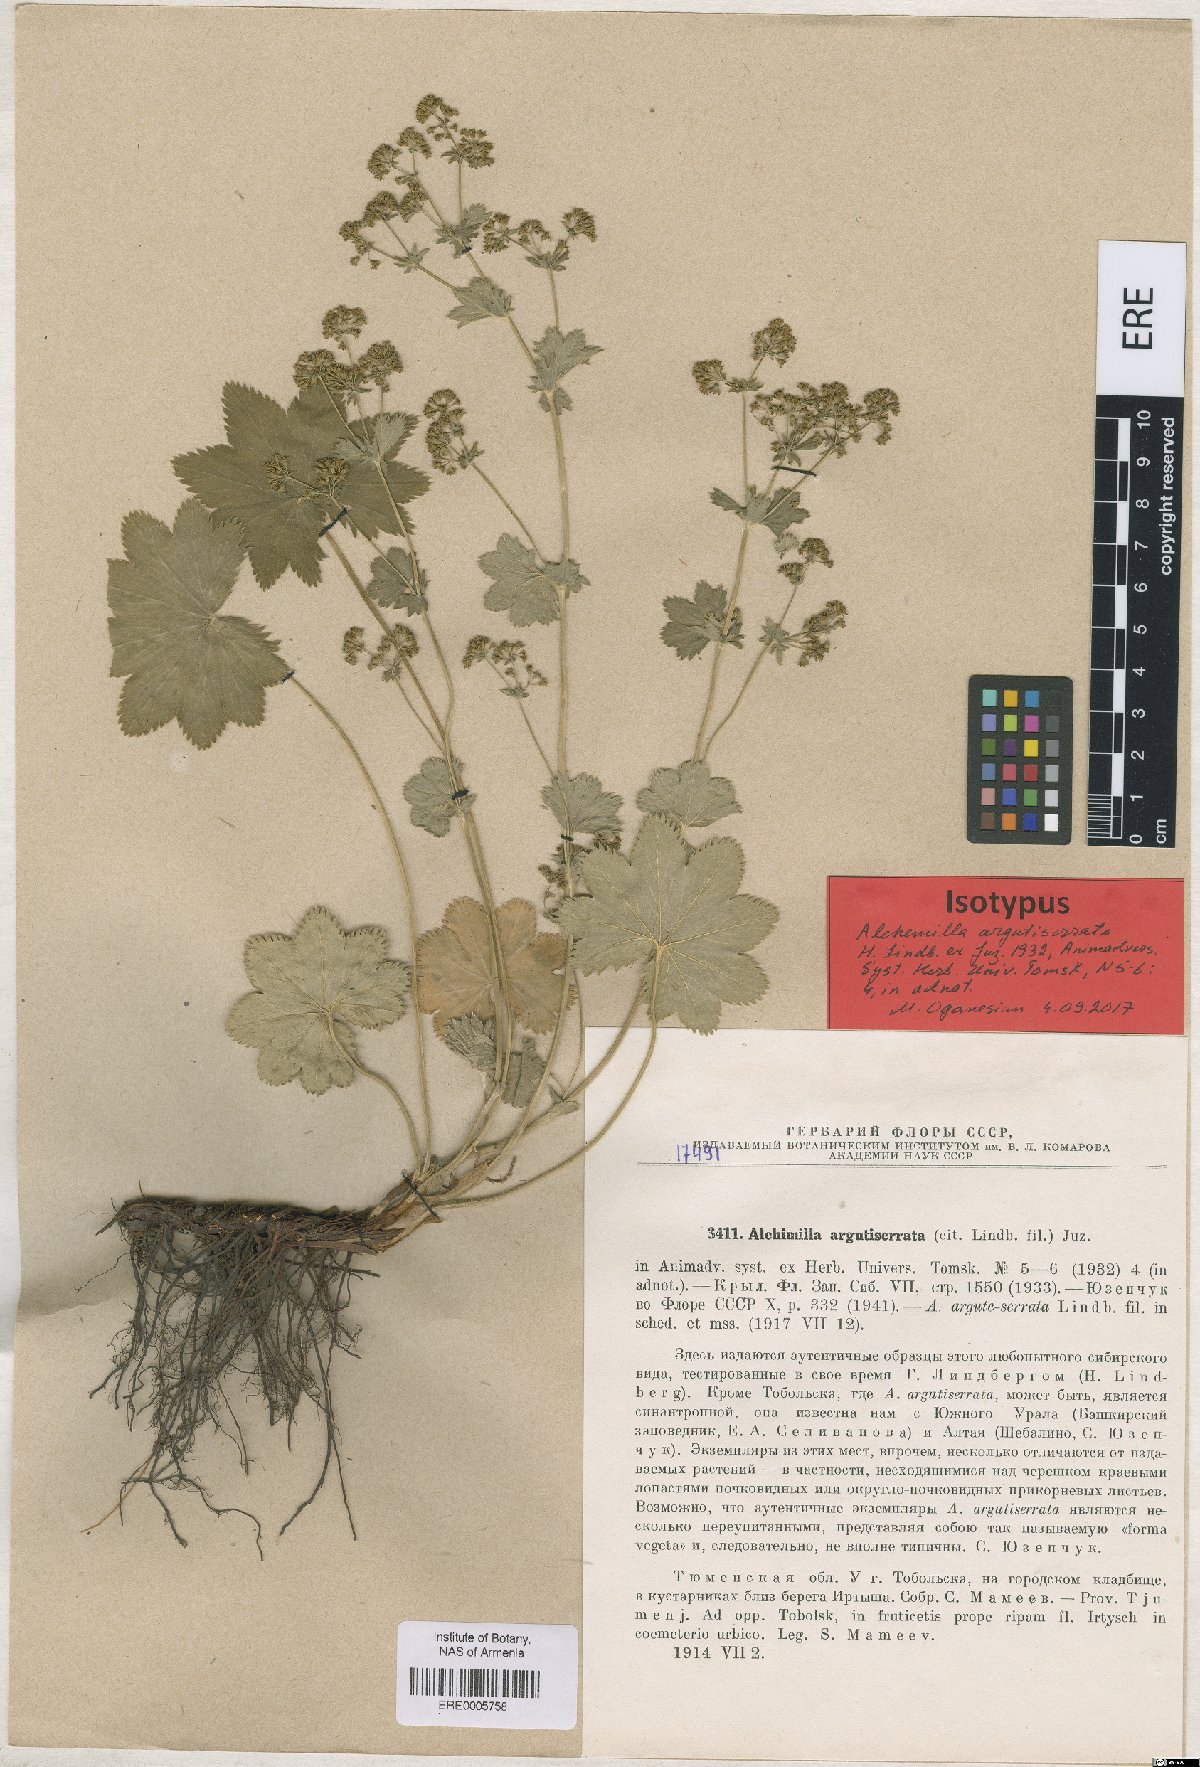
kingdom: Plantae
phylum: Tracheophyta
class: Magnoliopsida
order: Rosales
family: Rosaceae
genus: Alchemilla
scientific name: Alchemilla argutiserrata
